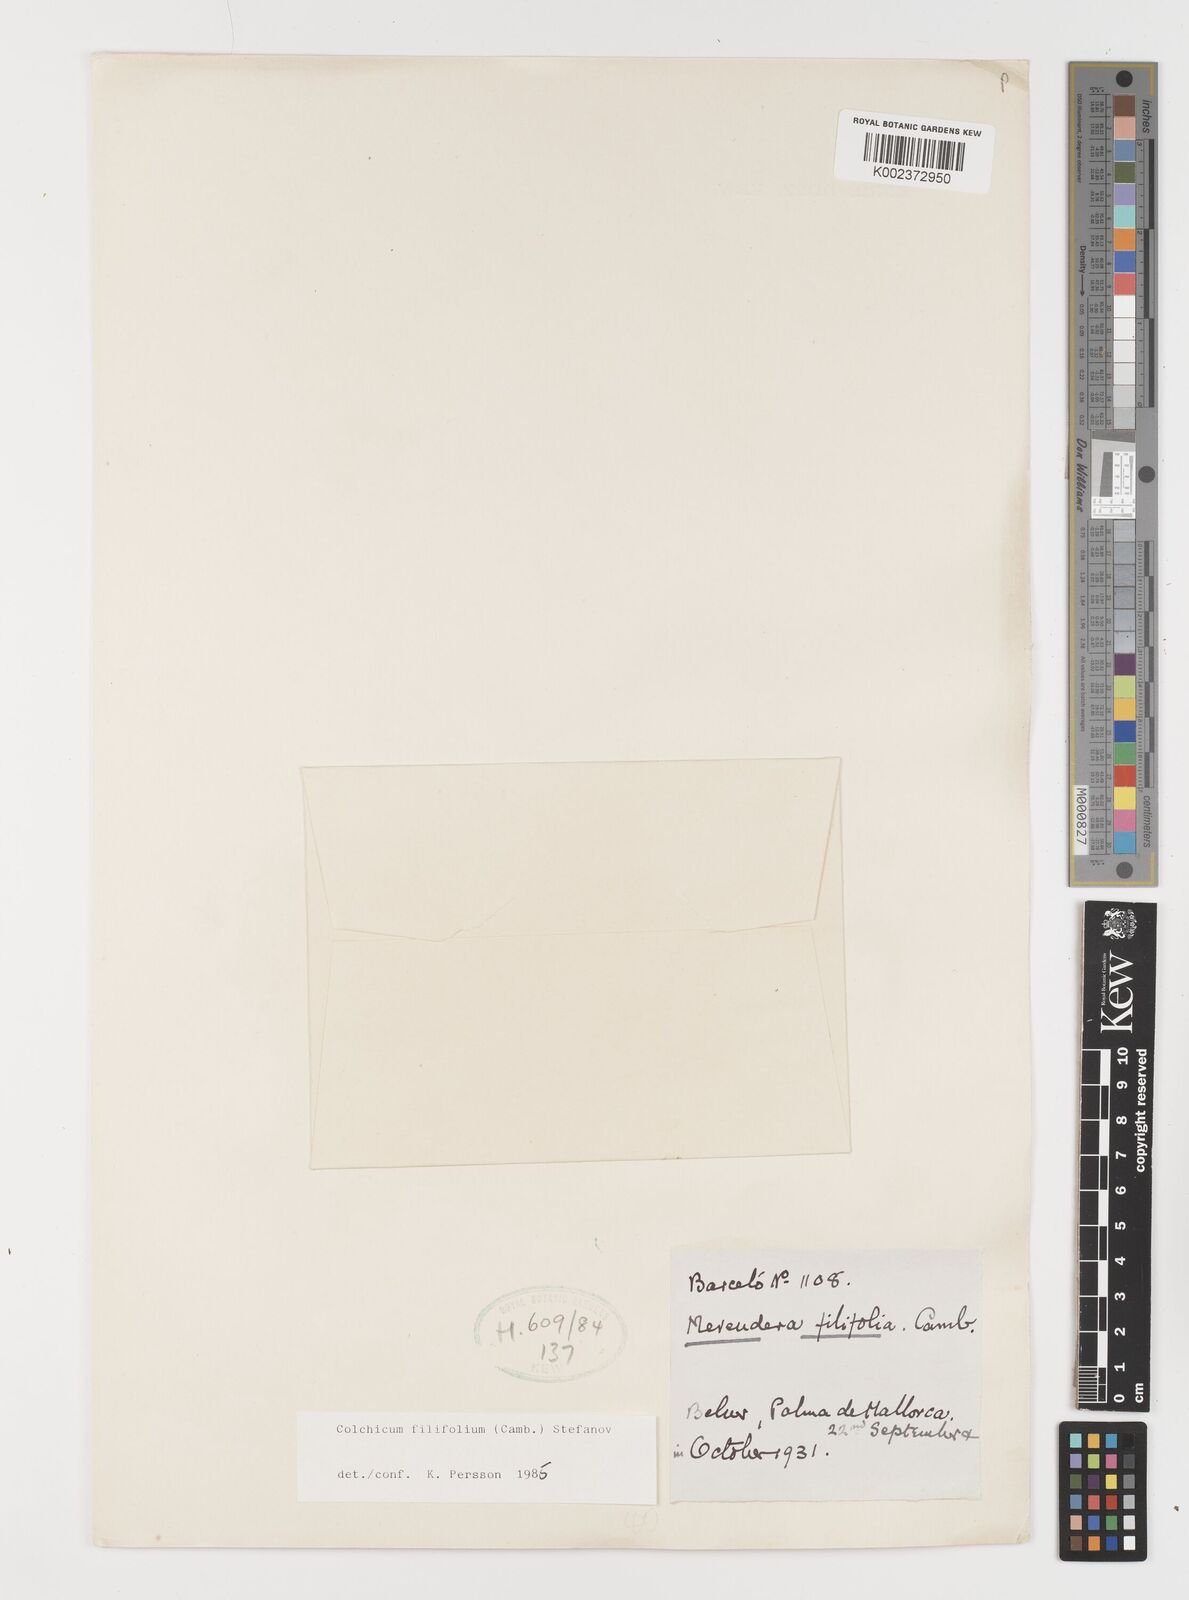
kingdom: Plantae
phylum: Tracheophyta
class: Liliopsida
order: Liliales
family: Colchicaceae
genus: Colchicum
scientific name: Colchicum filifolium
